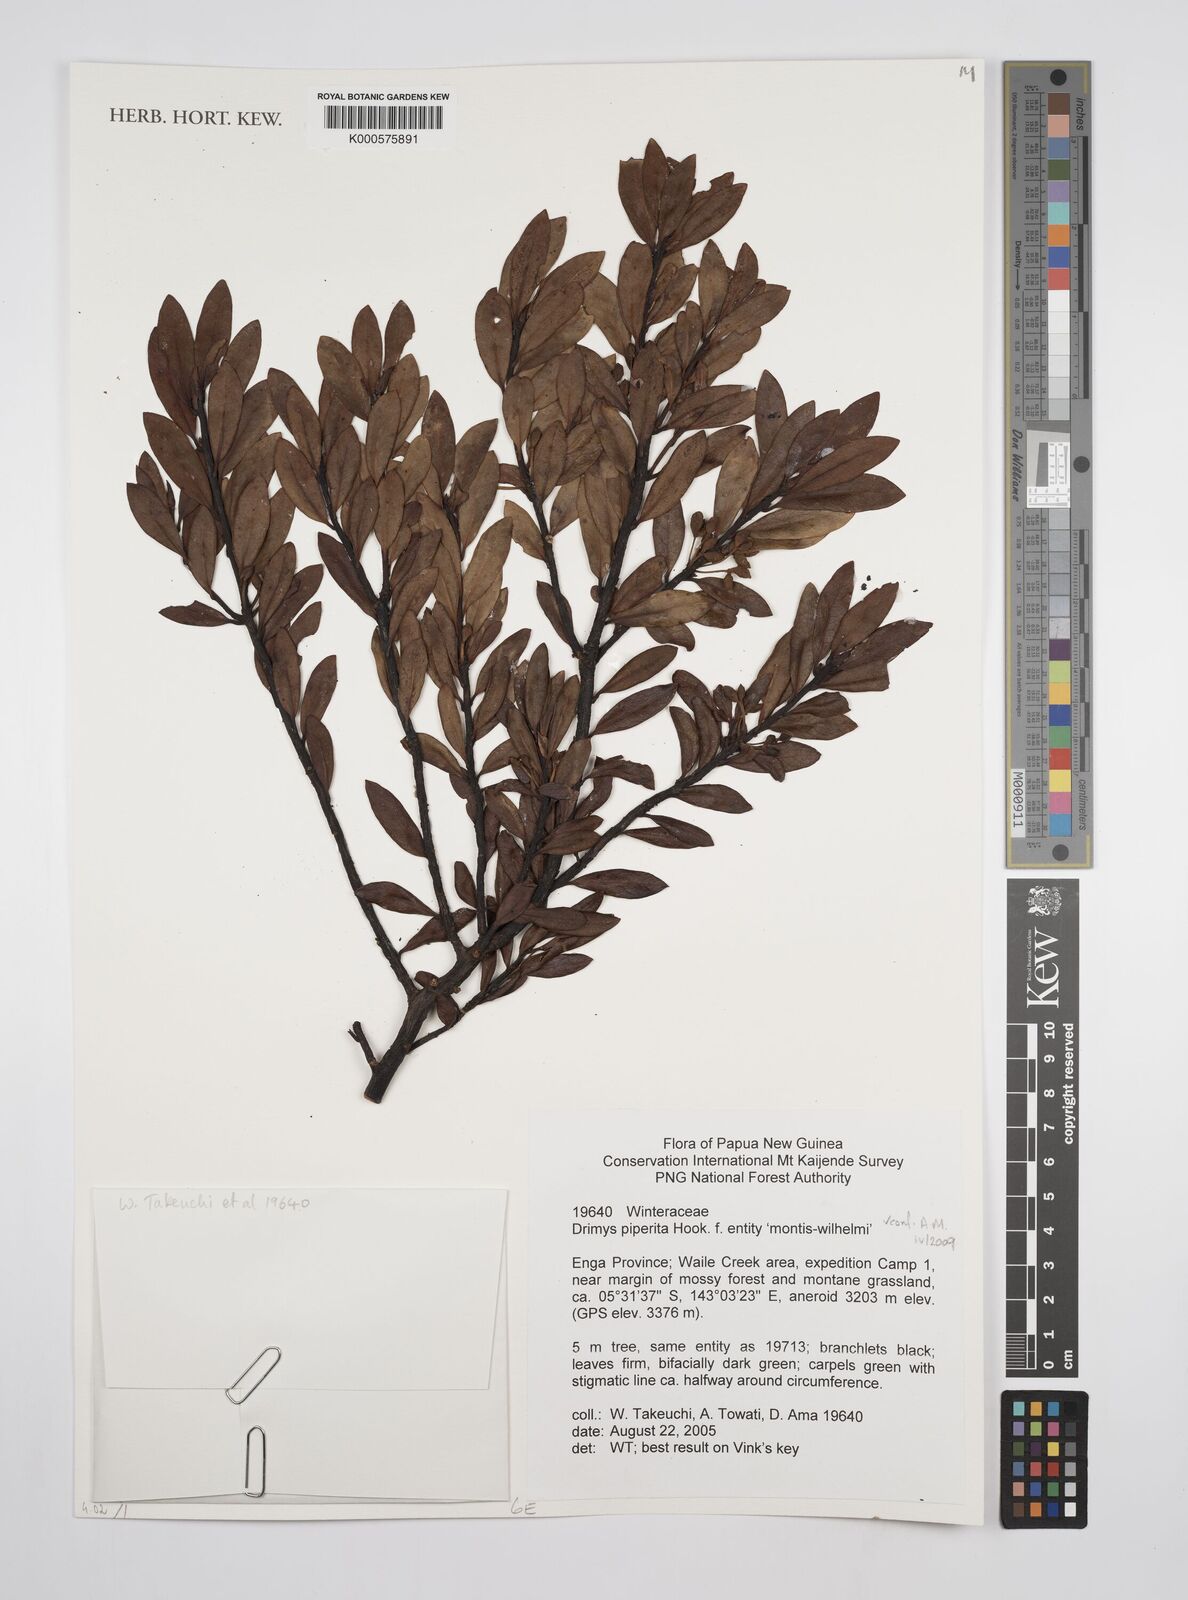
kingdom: Plantae
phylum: Tracheophyta
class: Magnoliopsida
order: Canellales
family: Winteraceae
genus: Drimys
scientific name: Drimys piperita
